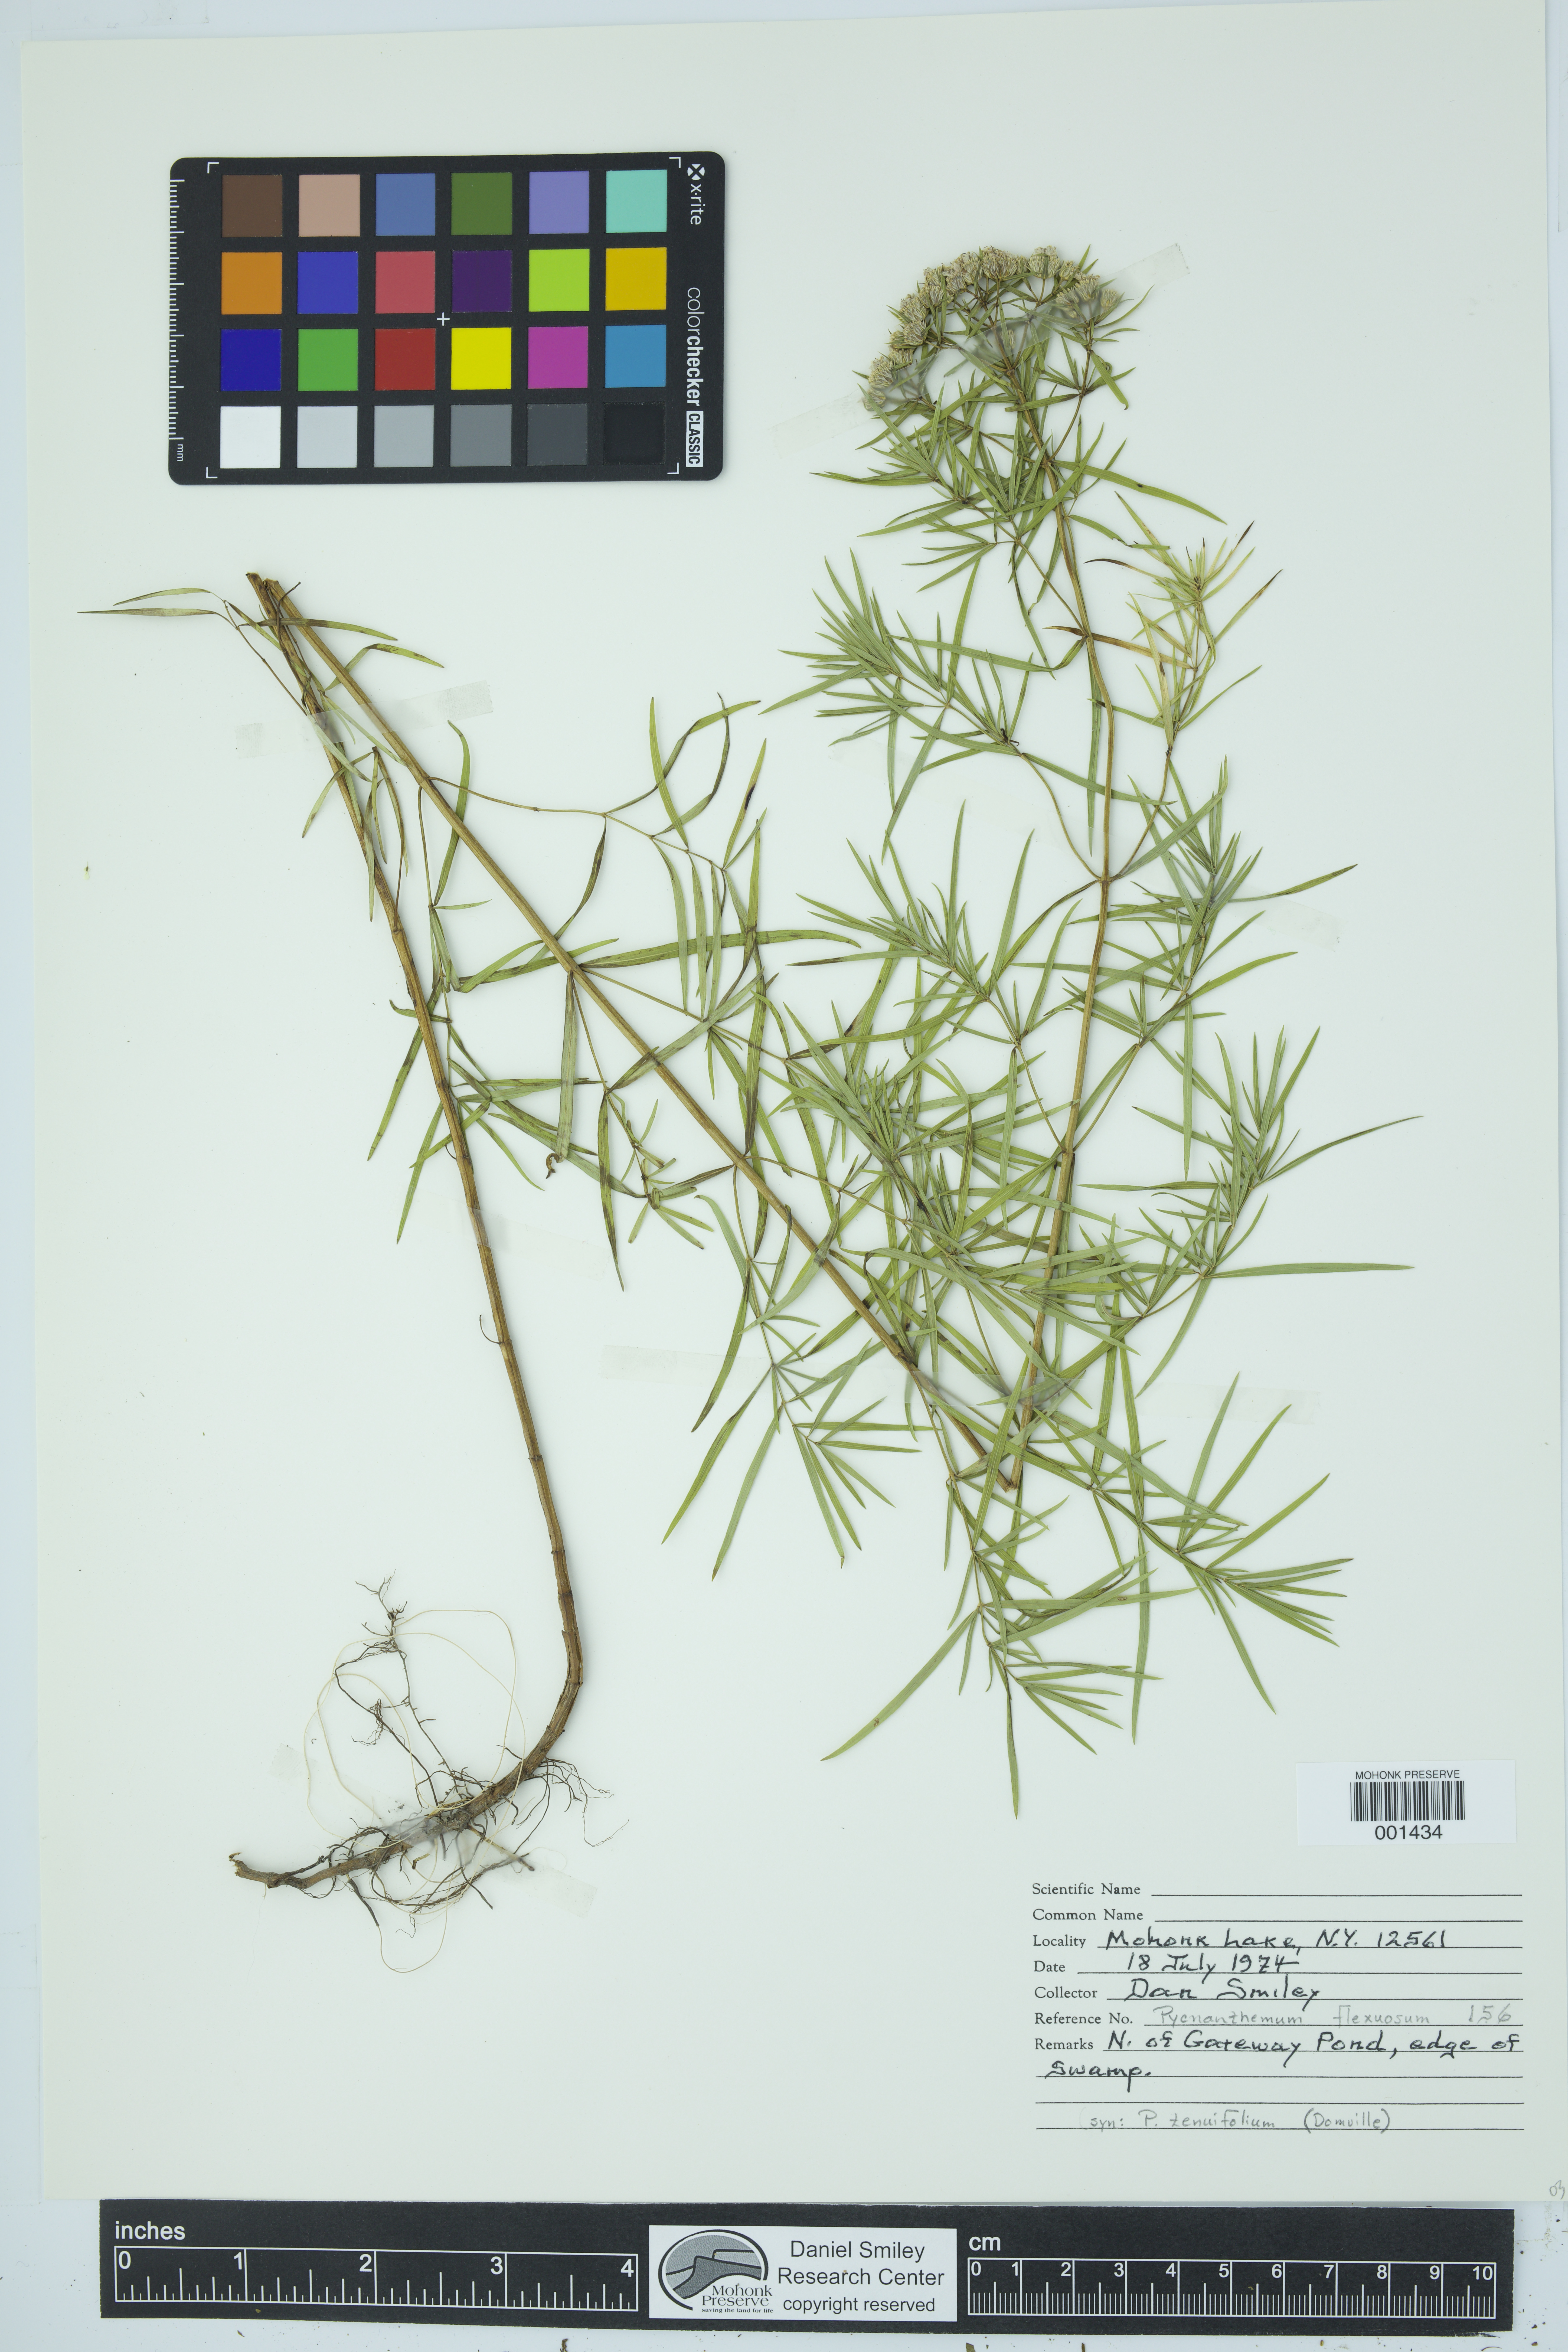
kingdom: Plantae
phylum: Tracheophyta
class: Magnoliopsida
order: Lamiales
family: Lamiaceae
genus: Pycnanthemum
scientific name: Pycnanthemum tenuifolium
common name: Narrow-leaf mountain-mint
